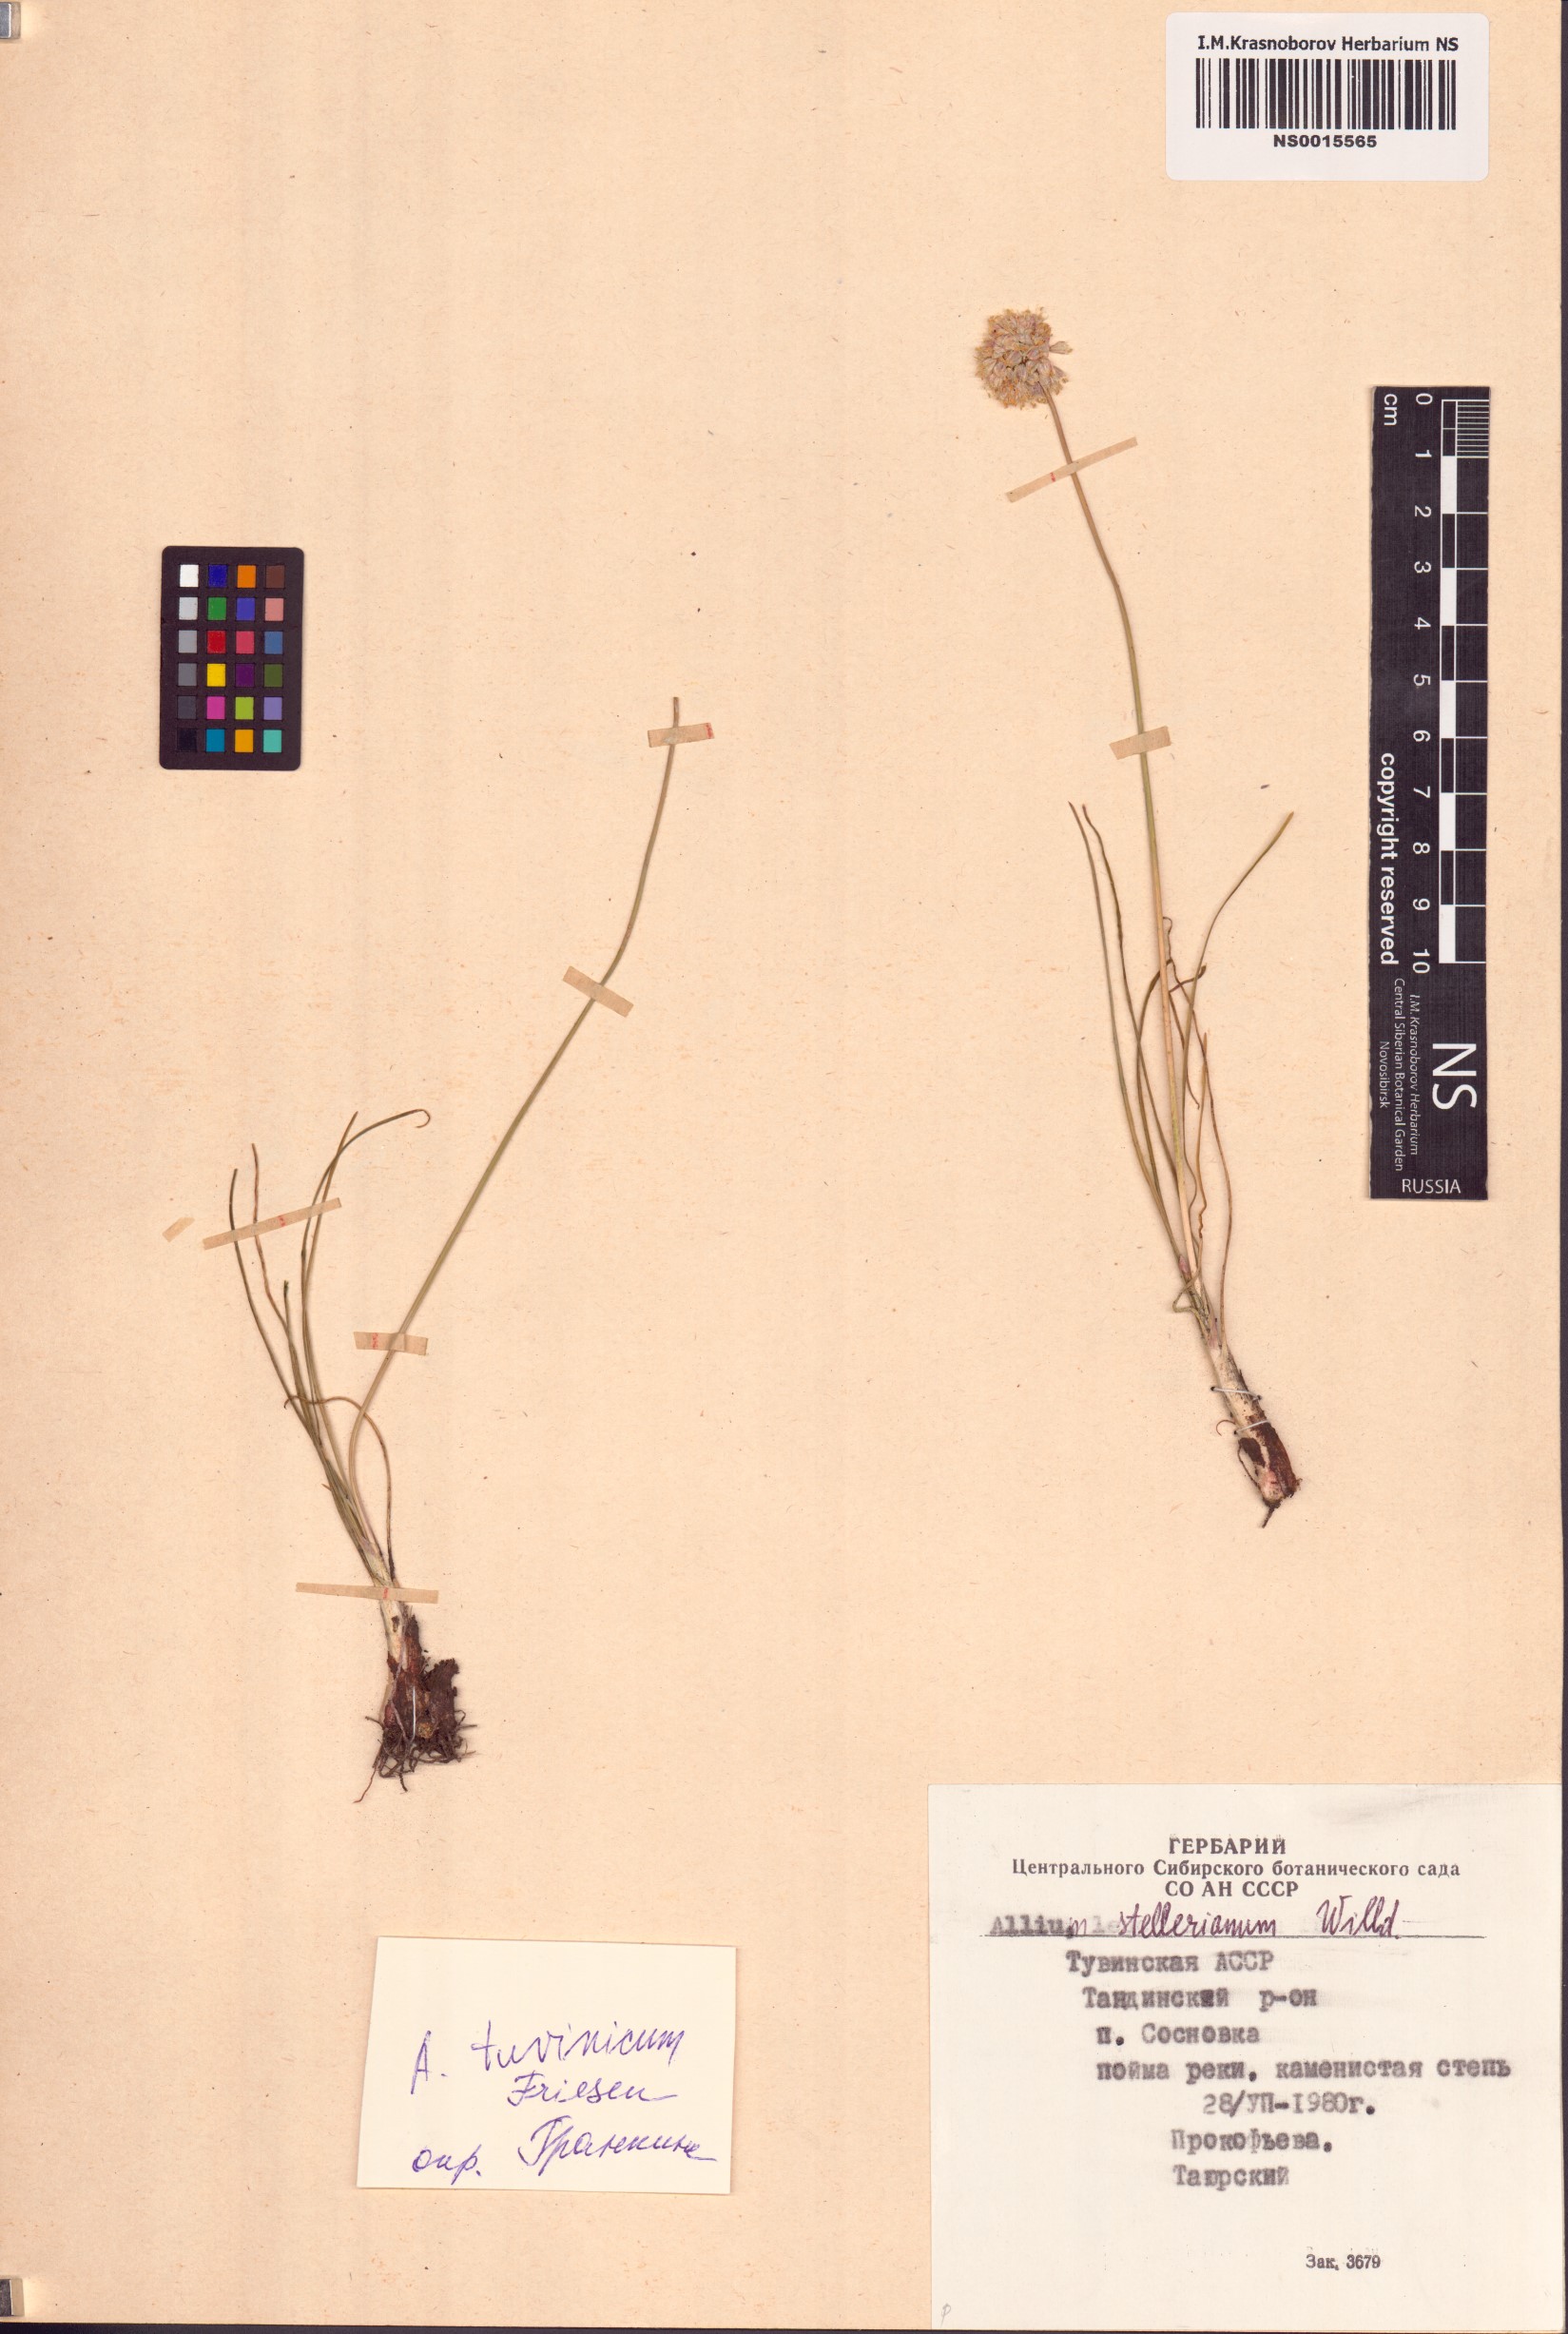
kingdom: Plantae
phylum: Tracheophyta
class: Liliopsida
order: Asparagales
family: Amaryllidaceae
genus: Allium
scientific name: Allium tuvinicum
